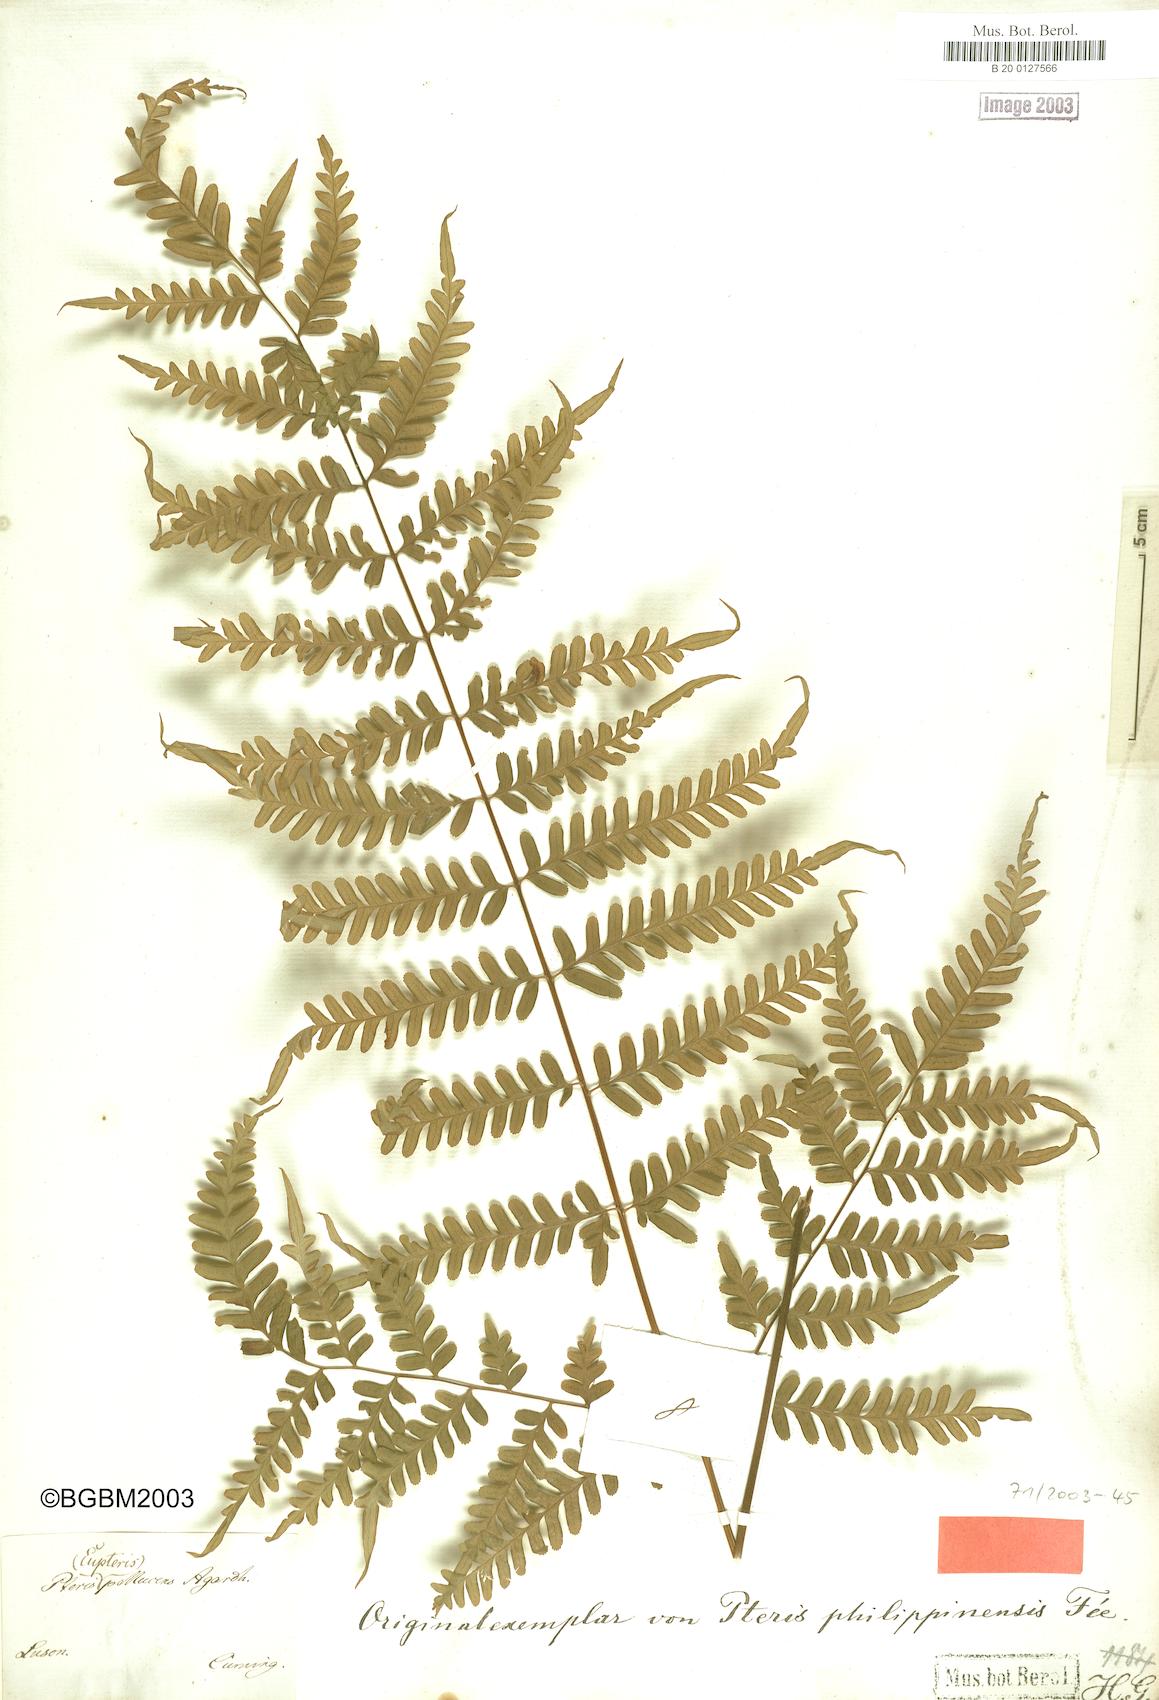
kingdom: Plantae
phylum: Tracheophyta
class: Polypodiopsida
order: Polypodiales
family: Pteridaceae
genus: Pteris
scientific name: Pteris pellucens
